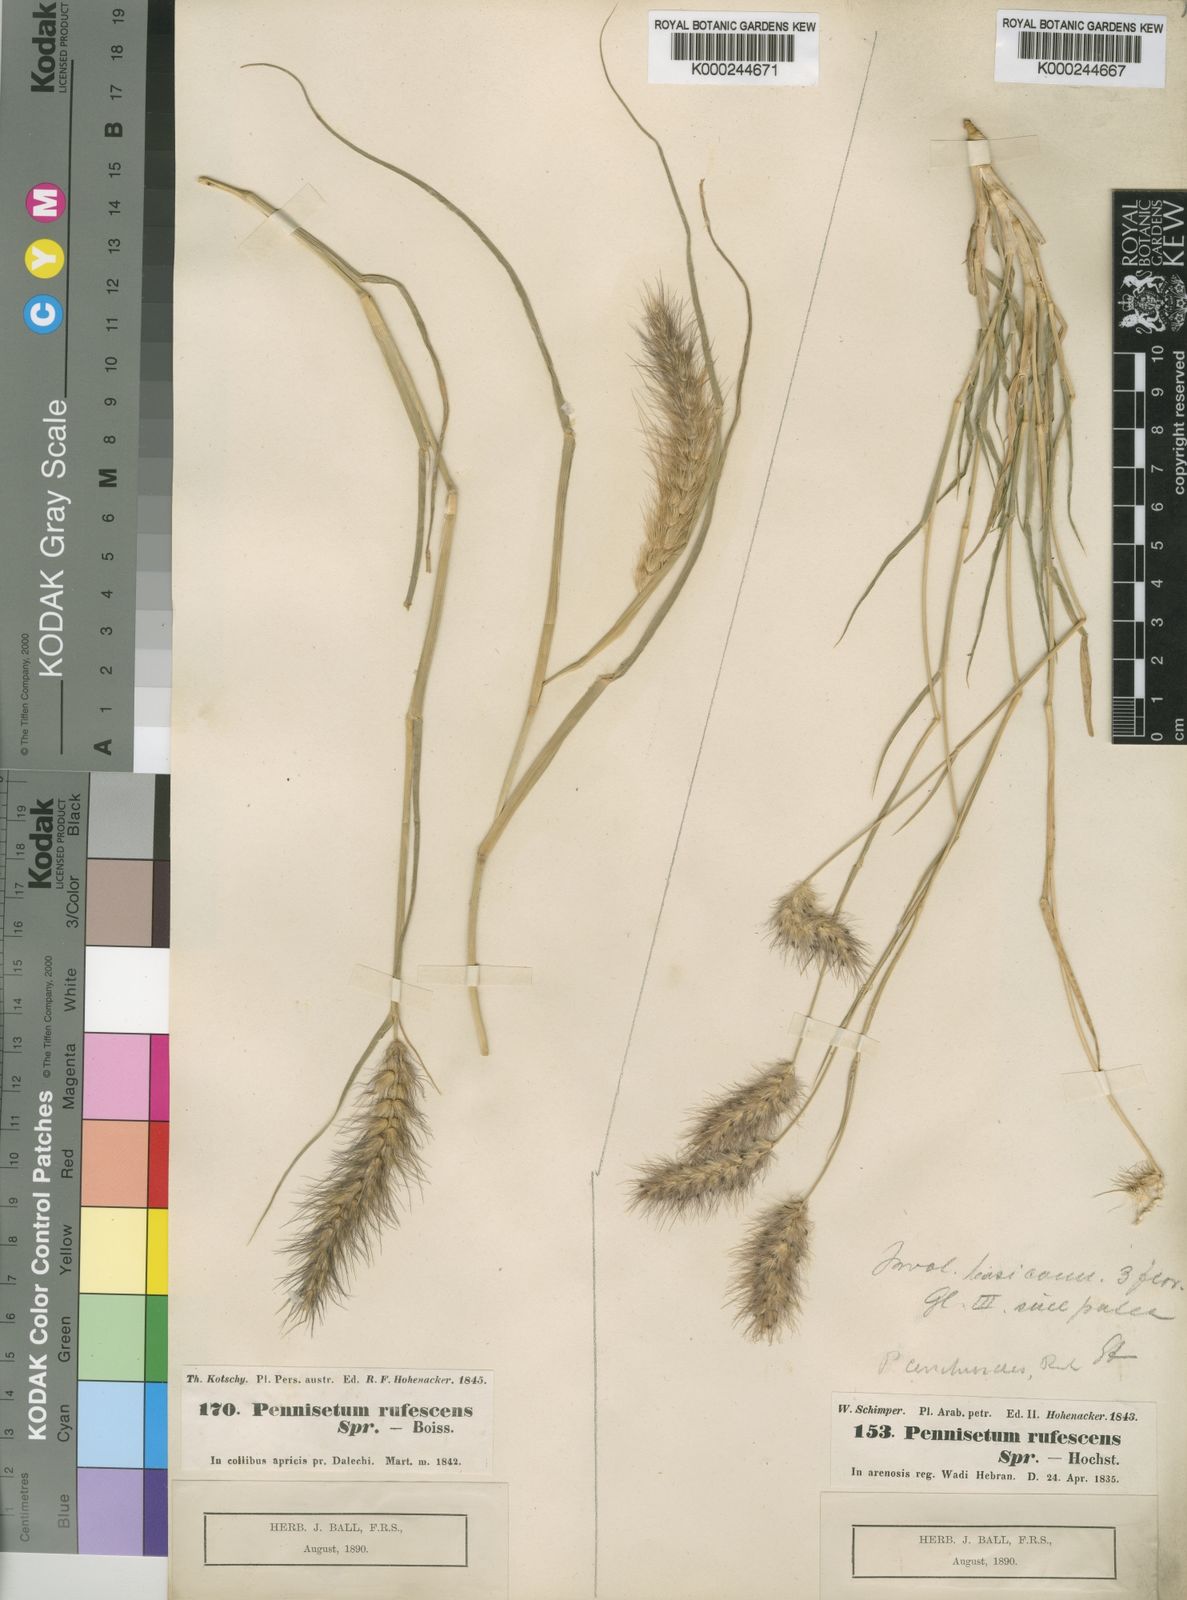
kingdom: Plantae
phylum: Tracheophyta
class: Liliopsida
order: Poales
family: Poaceae
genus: Cenchrus
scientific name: Cenchrus ciliaris
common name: Buffelgrass
